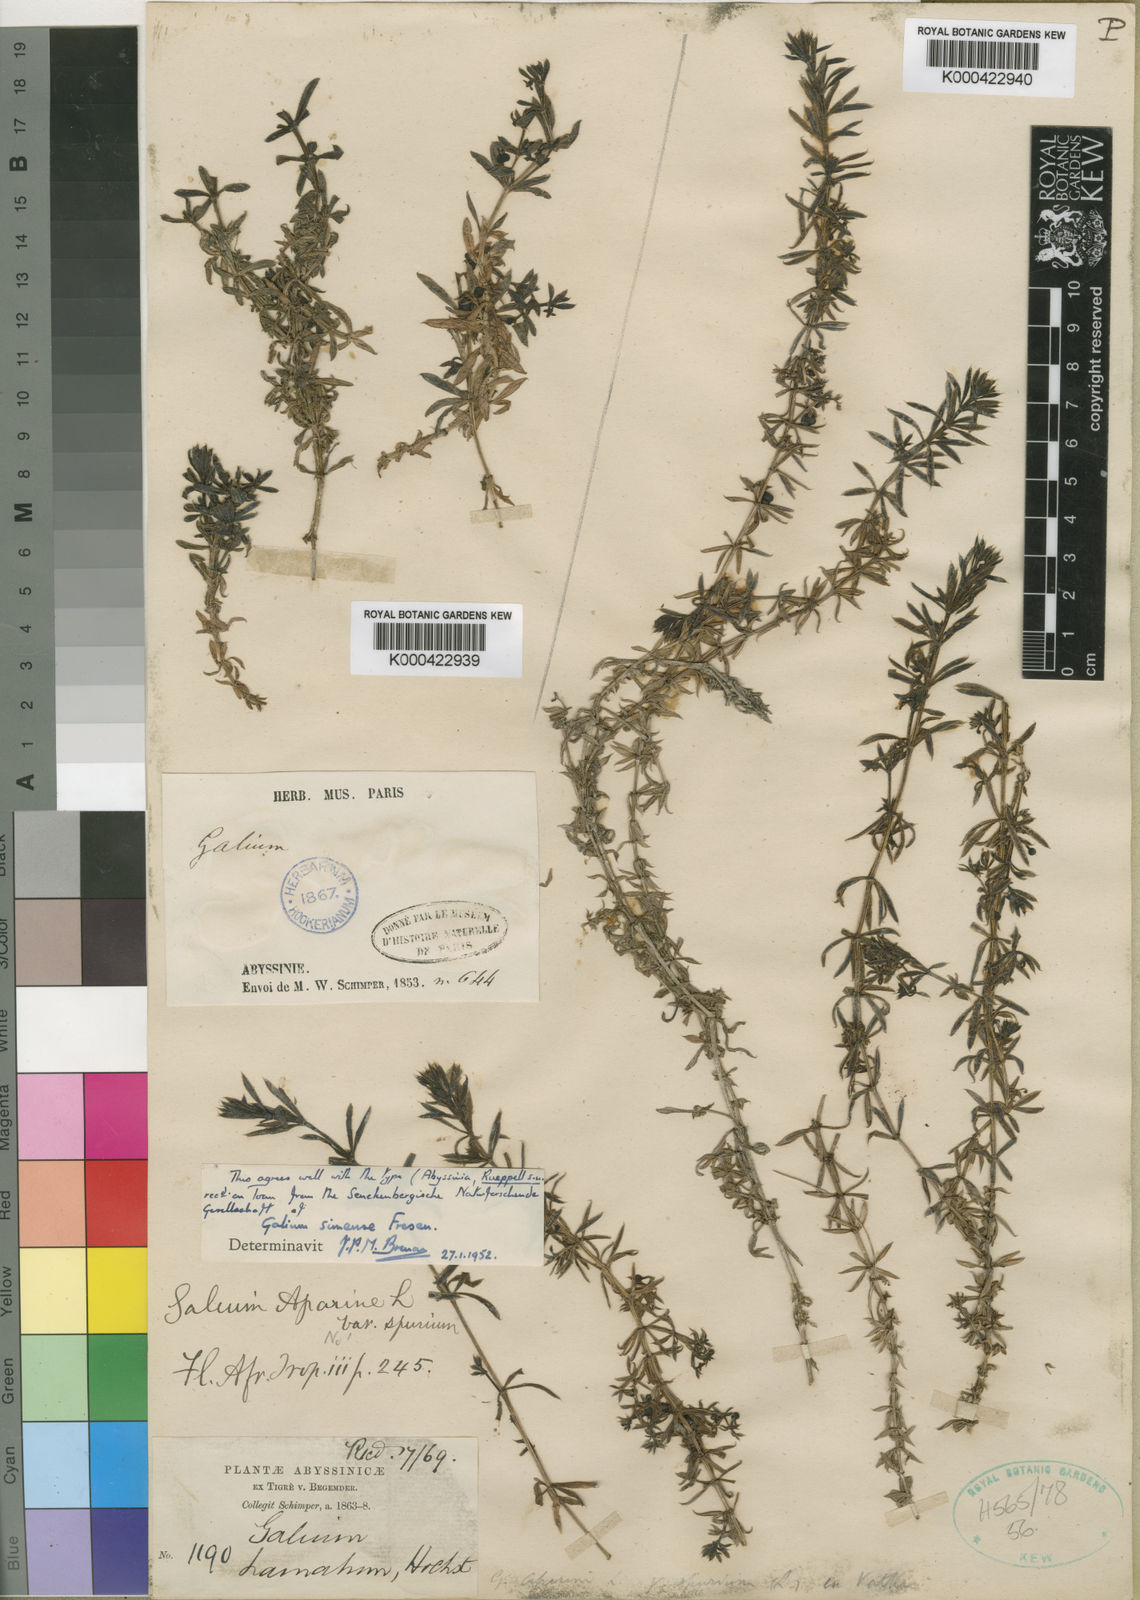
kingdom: Plantae
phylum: Tracheophyta
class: Magnoliopsida
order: Gentianales
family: Rubiaceae
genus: Galium
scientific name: Galium simense
